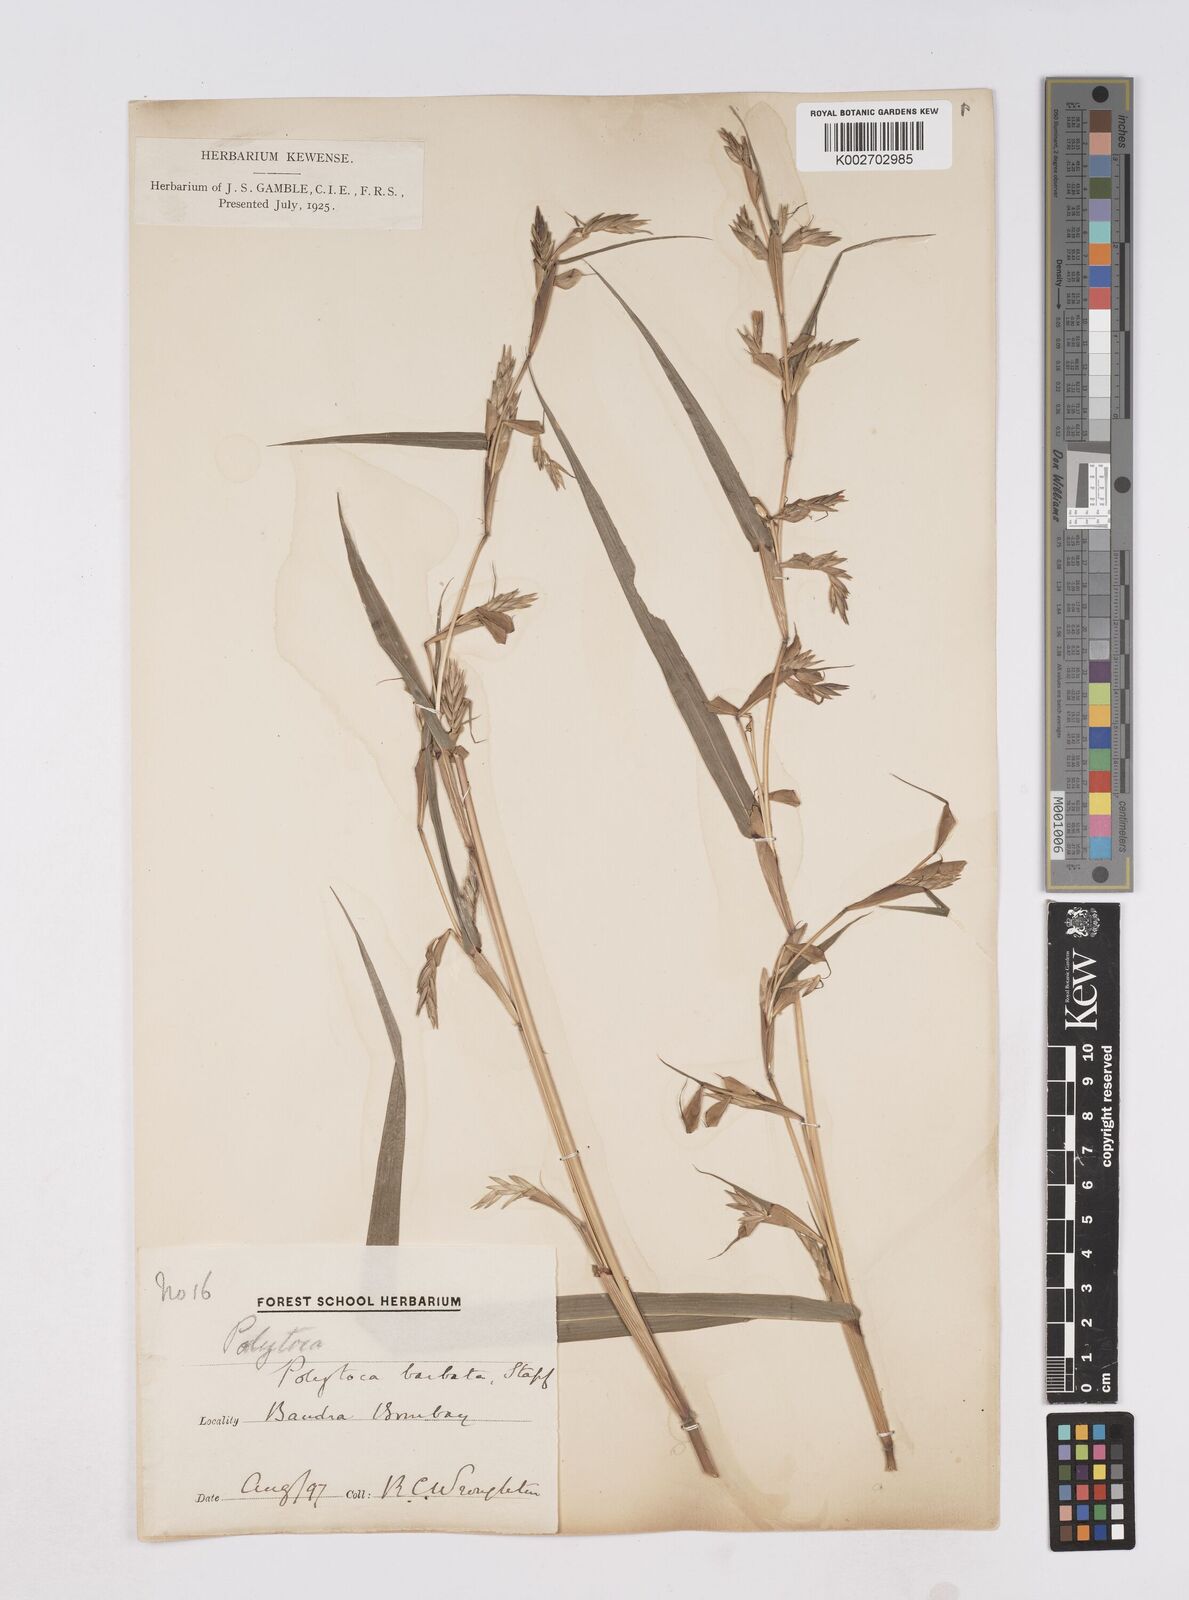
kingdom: Plantae
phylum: Tracheophyta
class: Liliopsida
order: Poales
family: Poaceae
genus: Polytoca
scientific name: Polytoca gigantea
